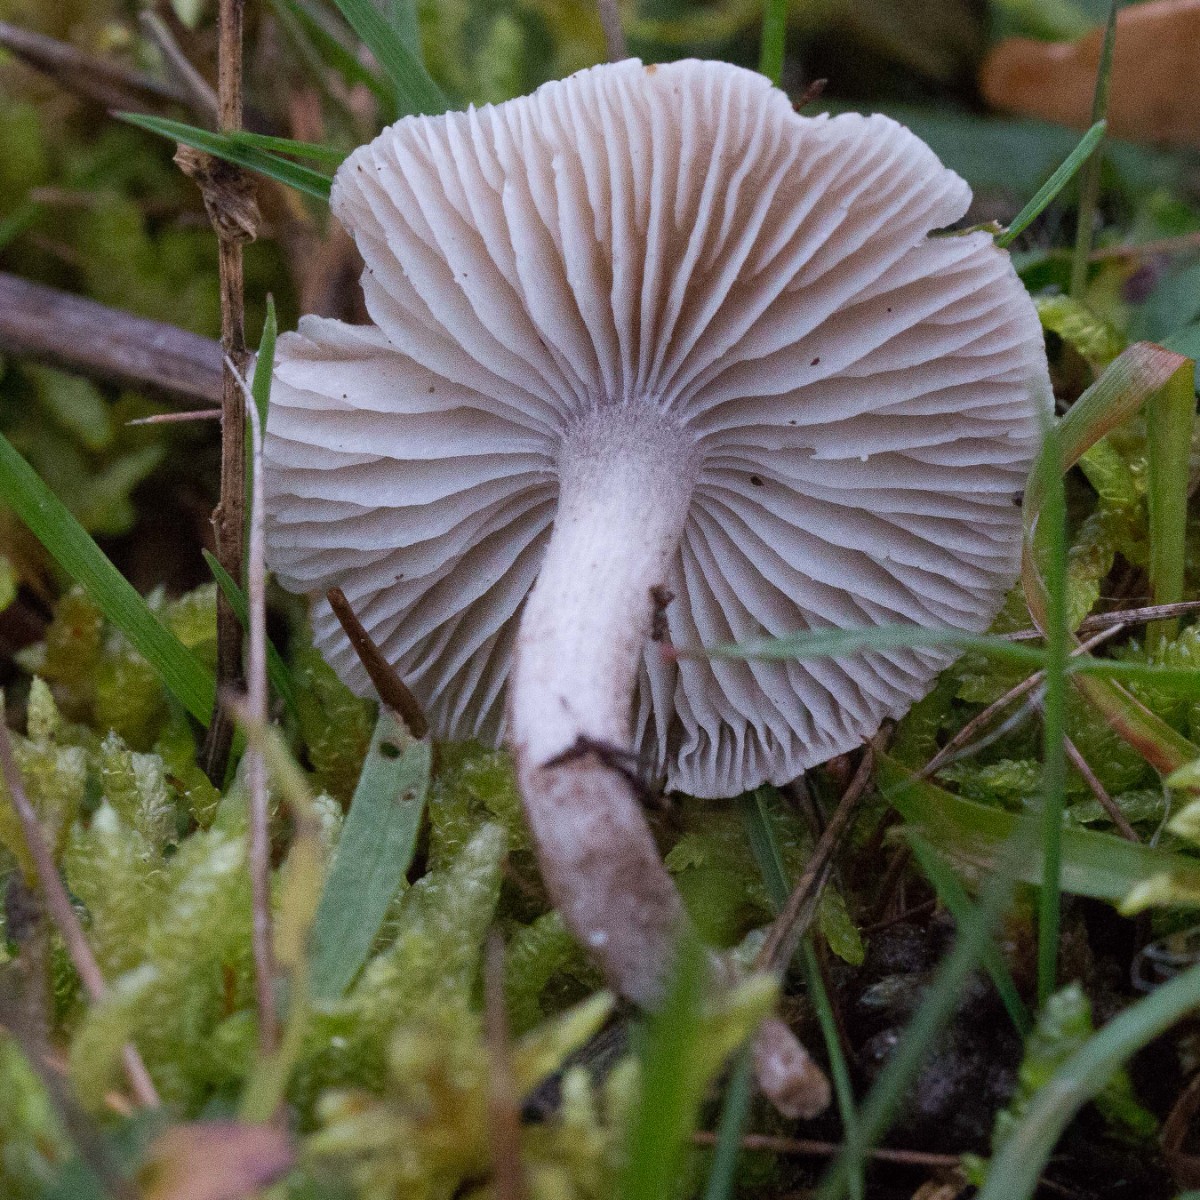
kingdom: Fungi
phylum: Basidiomycota
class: Agaricomycetes
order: Agaricales
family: Tricholomataceae
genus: Dermoloma
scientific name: Dermoloma cuneifolium
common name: eng-nonnehat
